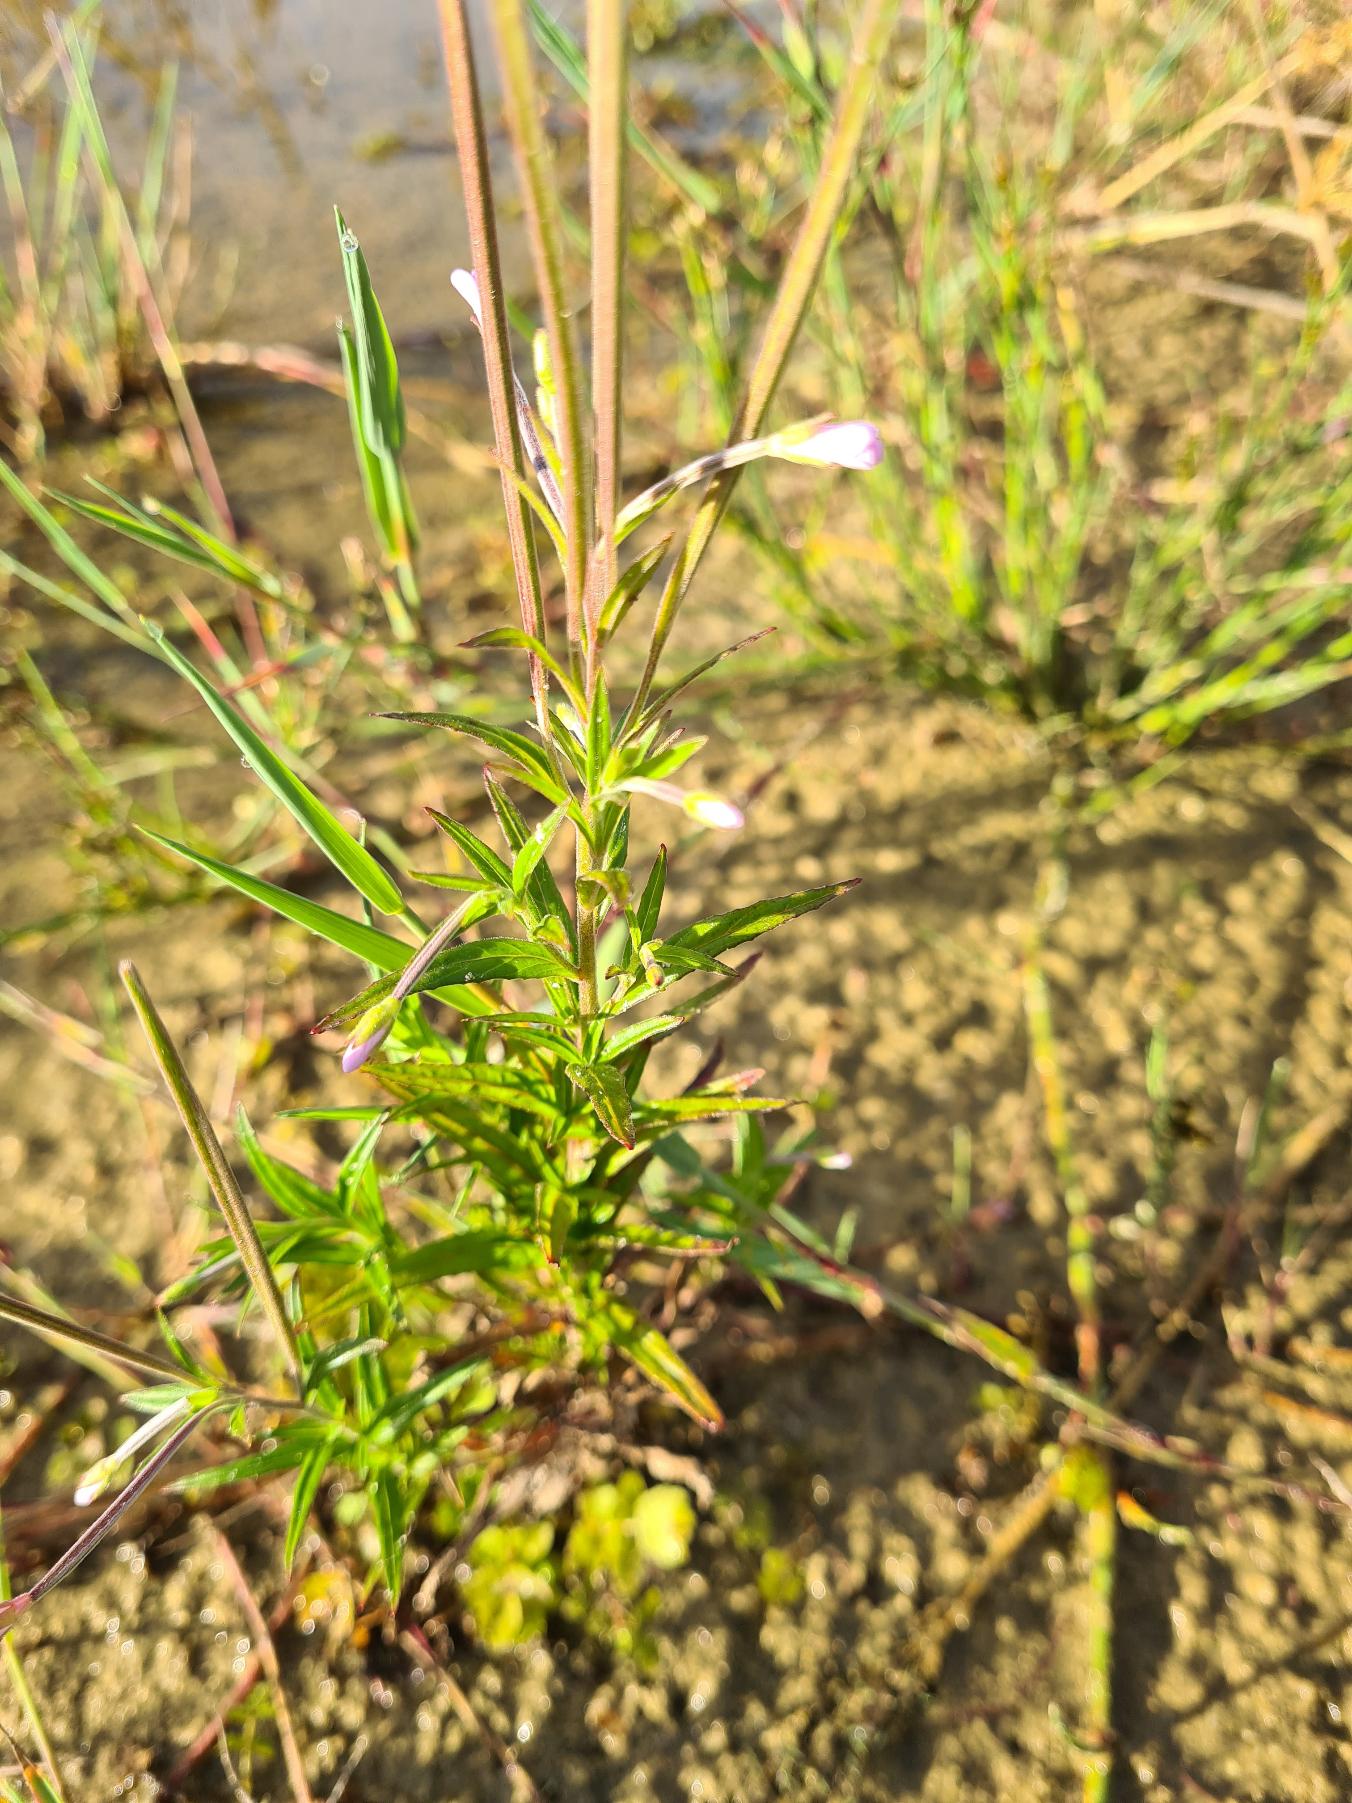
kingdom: Plantae
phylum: Tracheophyta
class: Magnoliopsida
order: Myrtales
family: Onagraceae
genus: Epilobium
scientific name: Epilobium palustre
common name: Kær-dueurt
